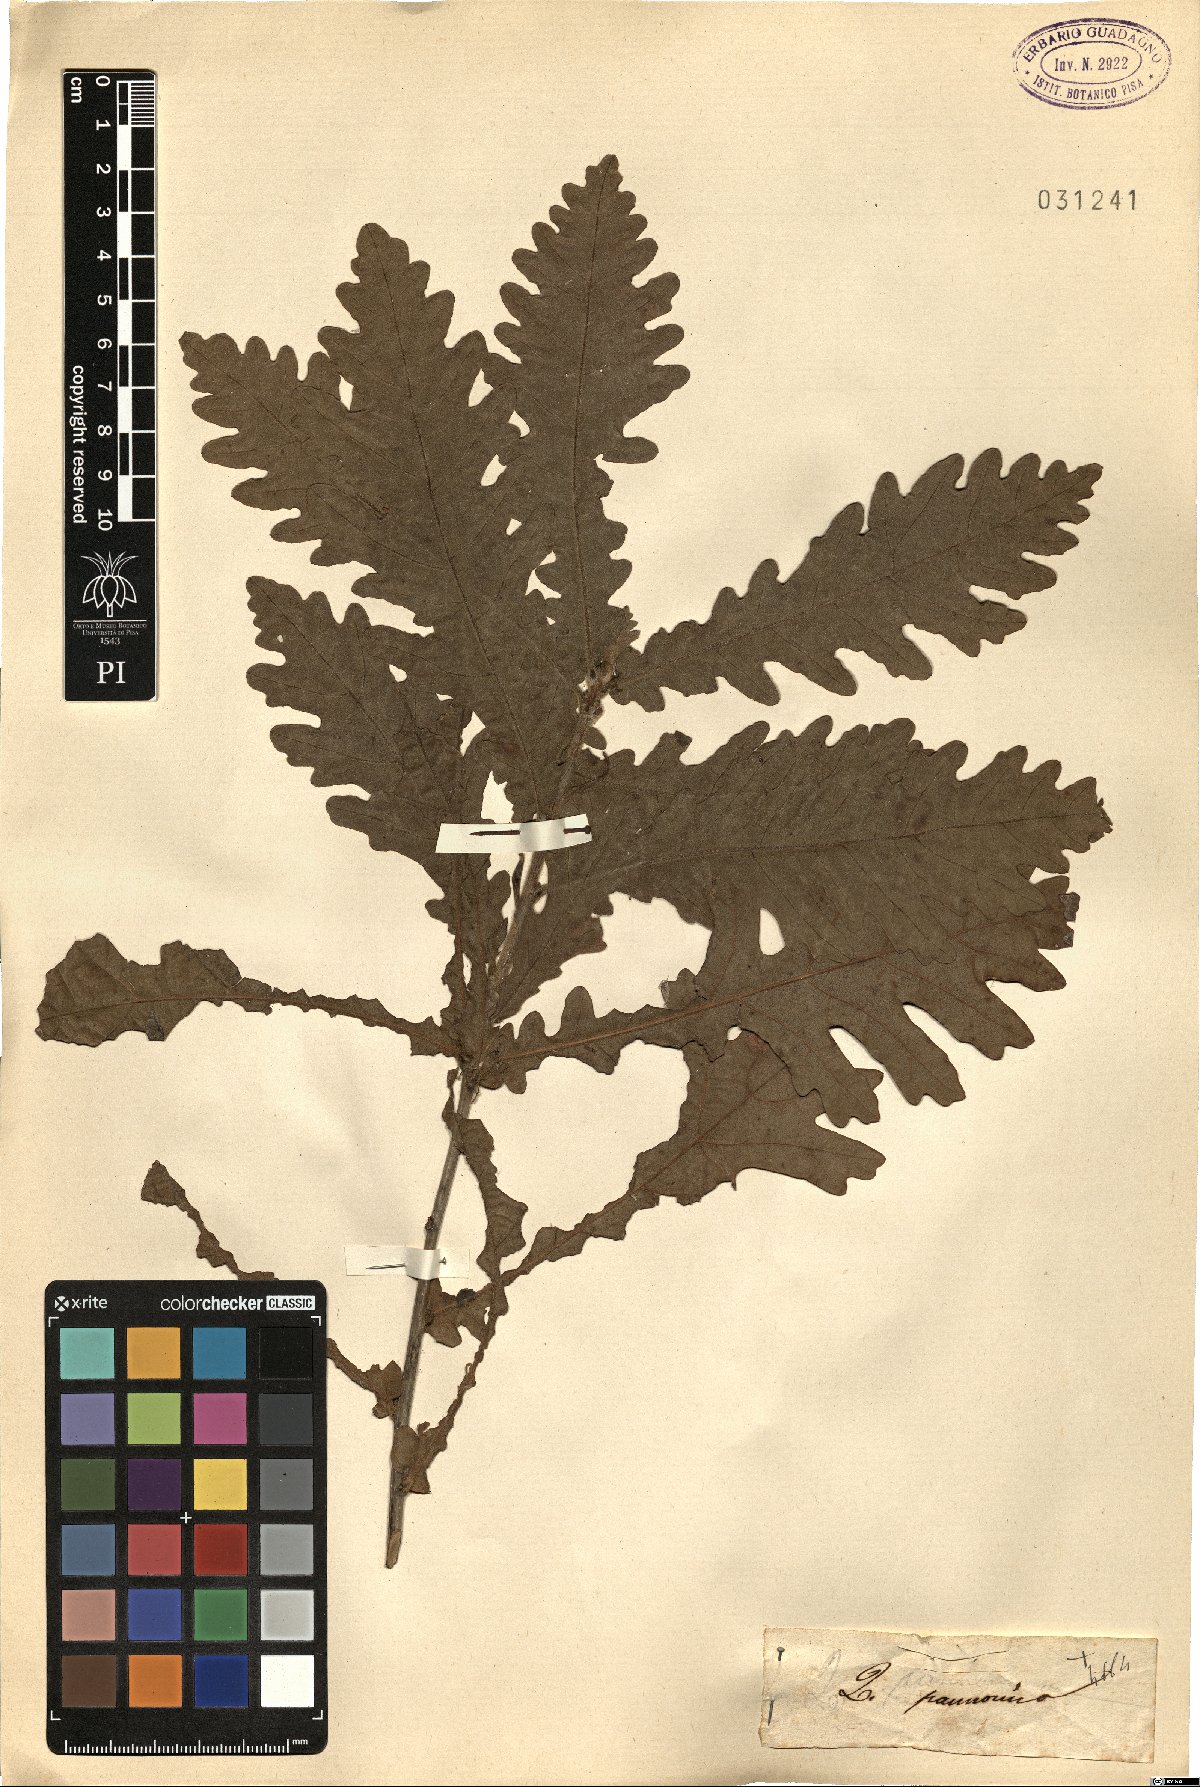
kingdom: Plantae
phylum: Tracheophyta
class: Magnoliopsida
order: Fagales
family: Fagaceae
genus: Quercus
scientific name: Quercus conferta
